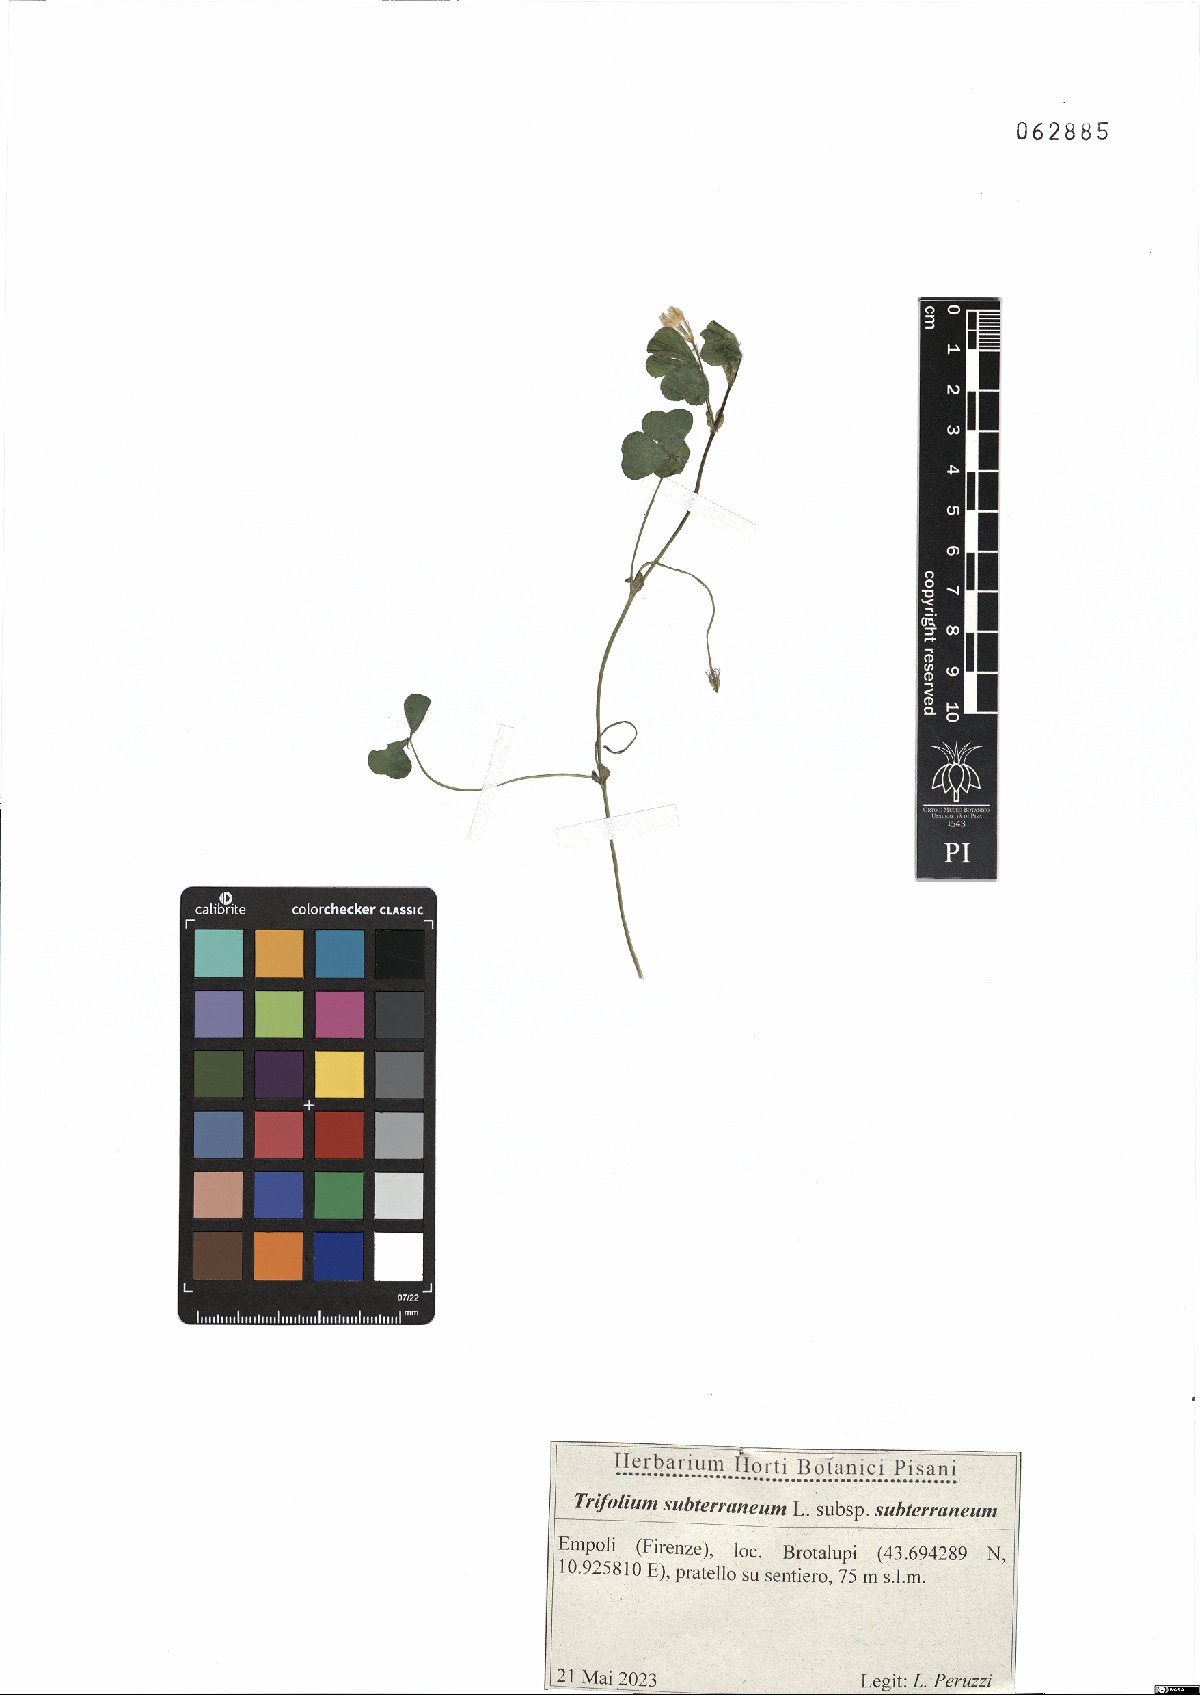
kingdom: Plantae
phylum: Tracheophyta
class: Magnoliopsida
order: Fabales
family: Fabaceae
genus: Trifolium
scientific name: Trifolium subterraneum
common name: Subterranean clover
